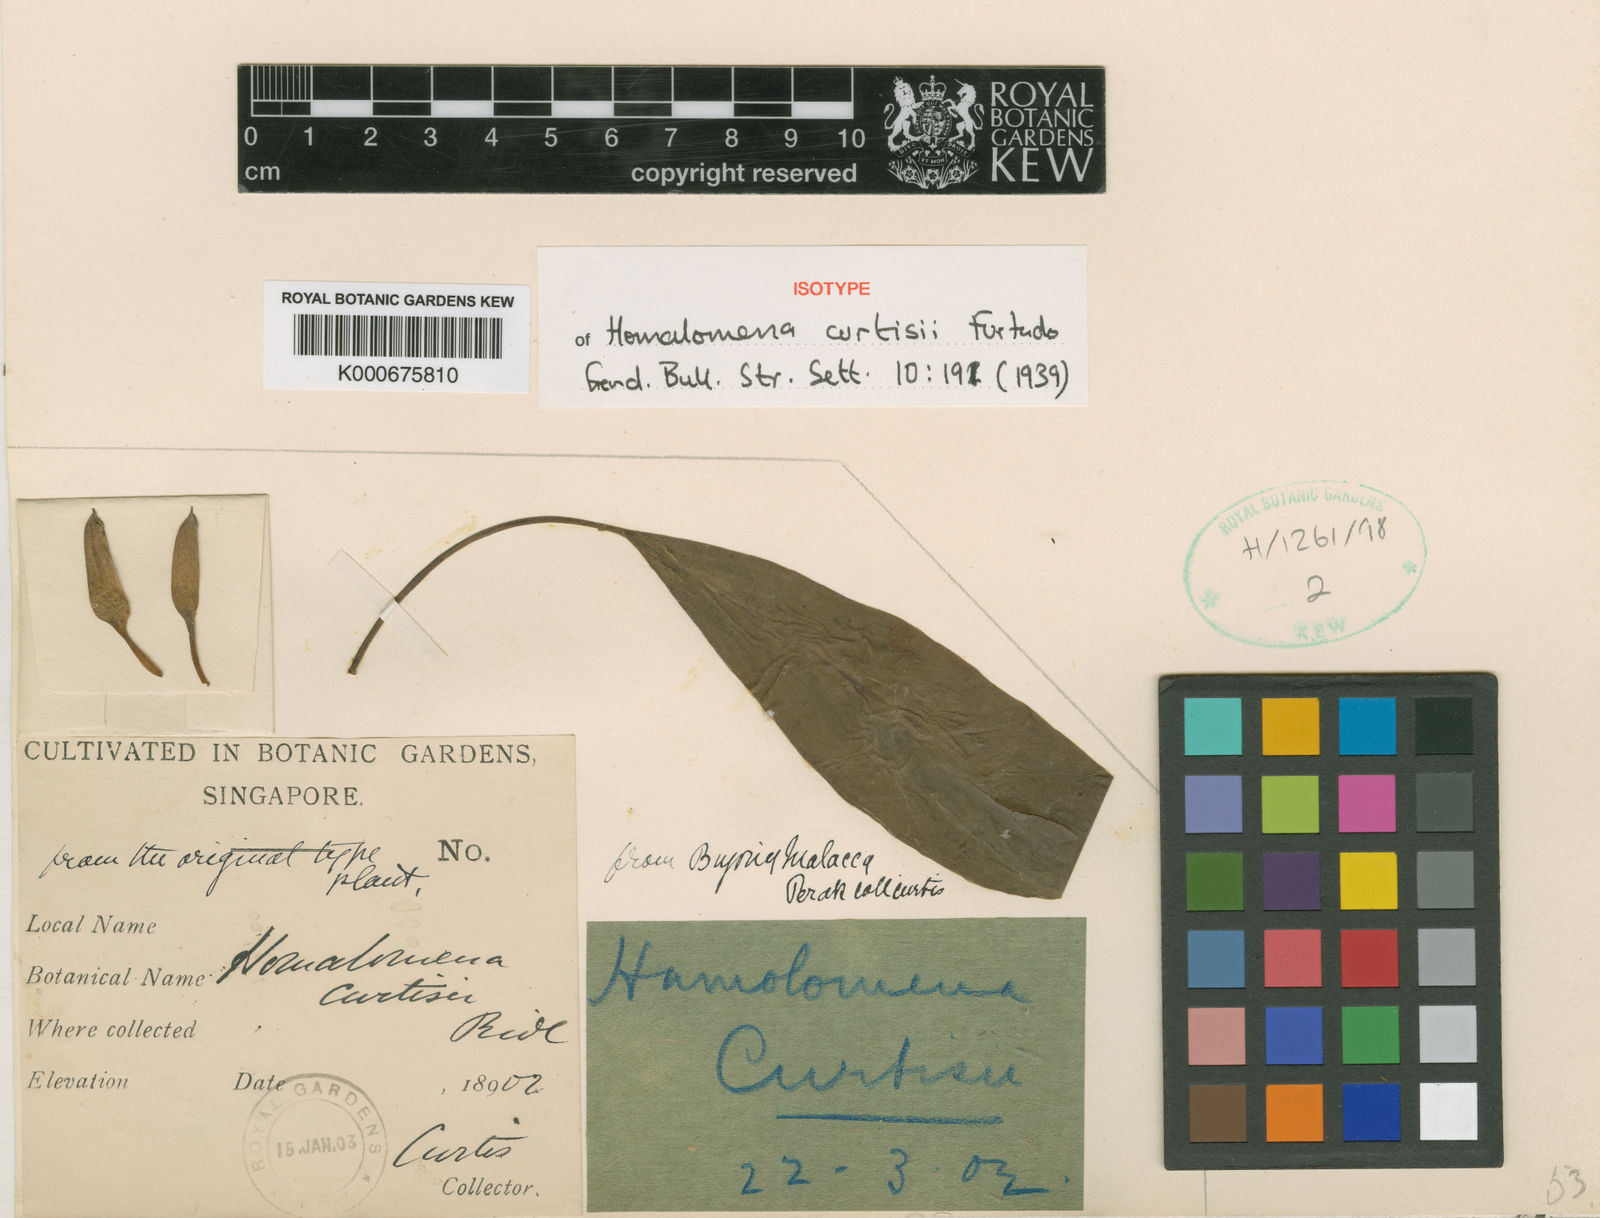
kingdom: Plantae
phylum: Tracheophyta
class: Liliopsida
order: Alismatales
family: Araceae
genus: Homalomena
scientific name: Homalomena curtisii
